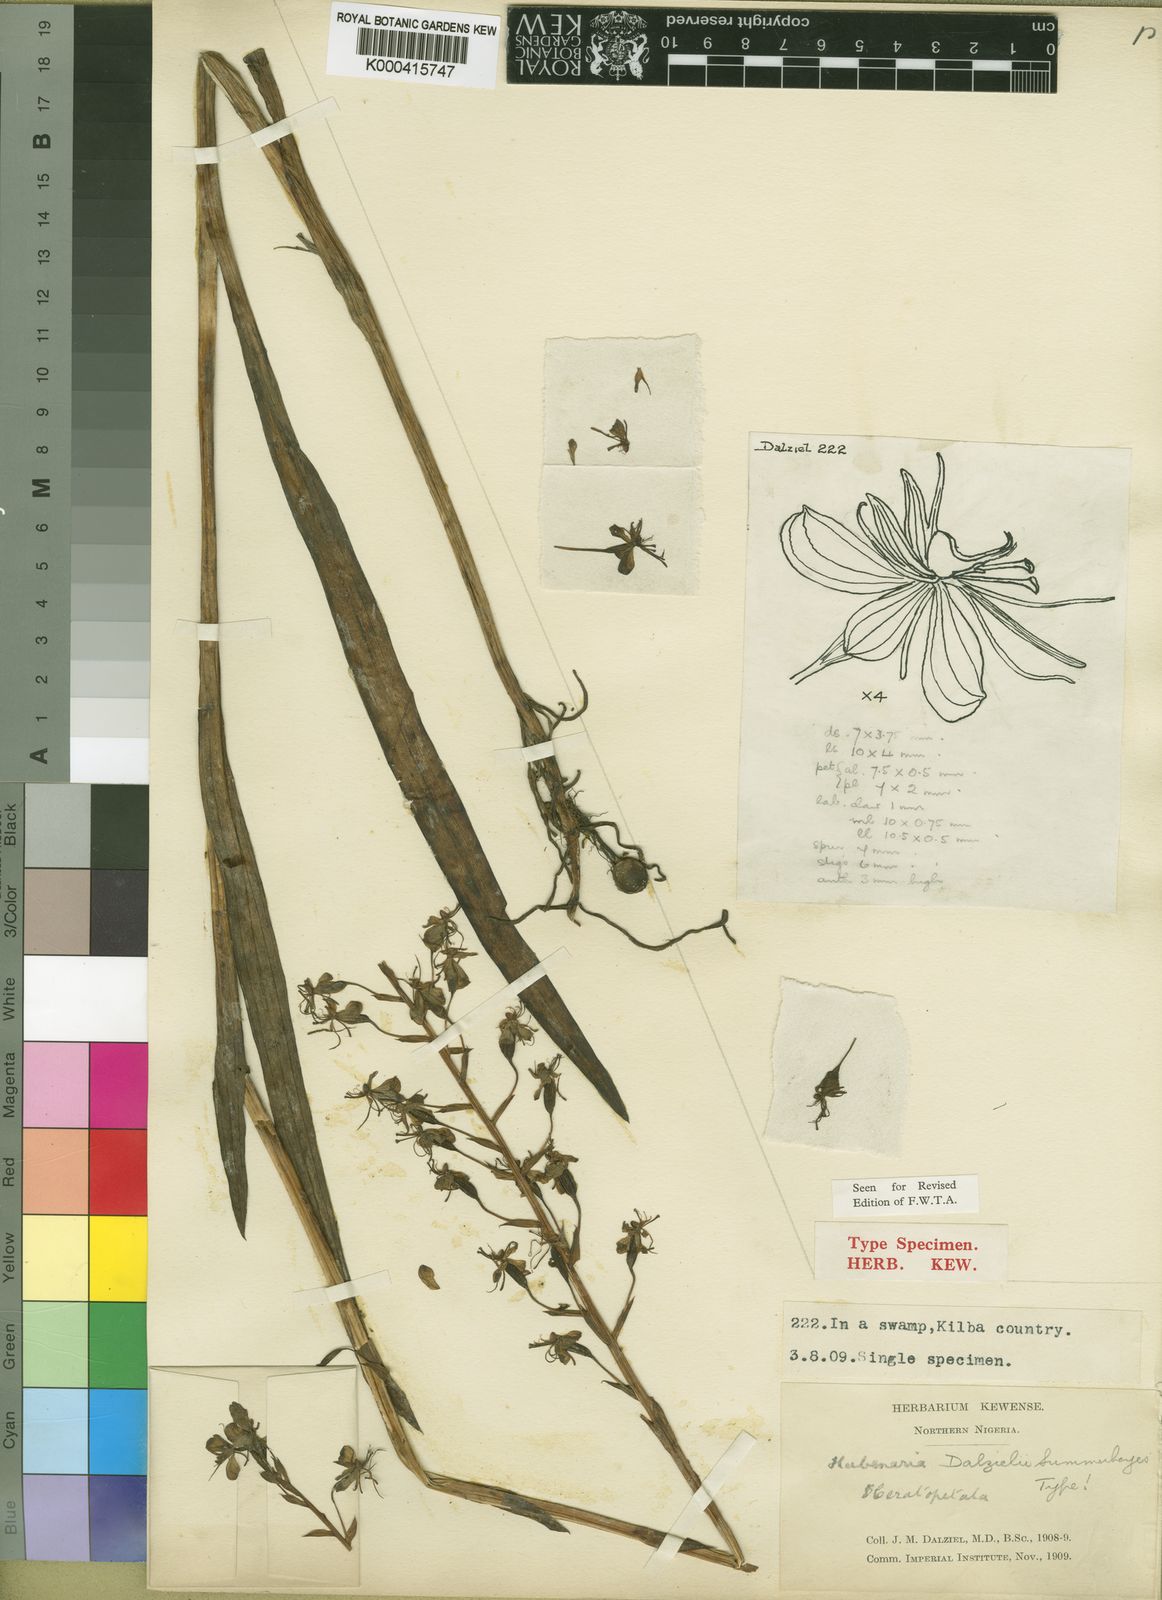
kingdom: Plantae
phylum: Tracheophyta
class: Liliopsida
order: Asparagales
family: Orchidaceae
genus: Habenaria
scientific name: Habenaria dalzielii
